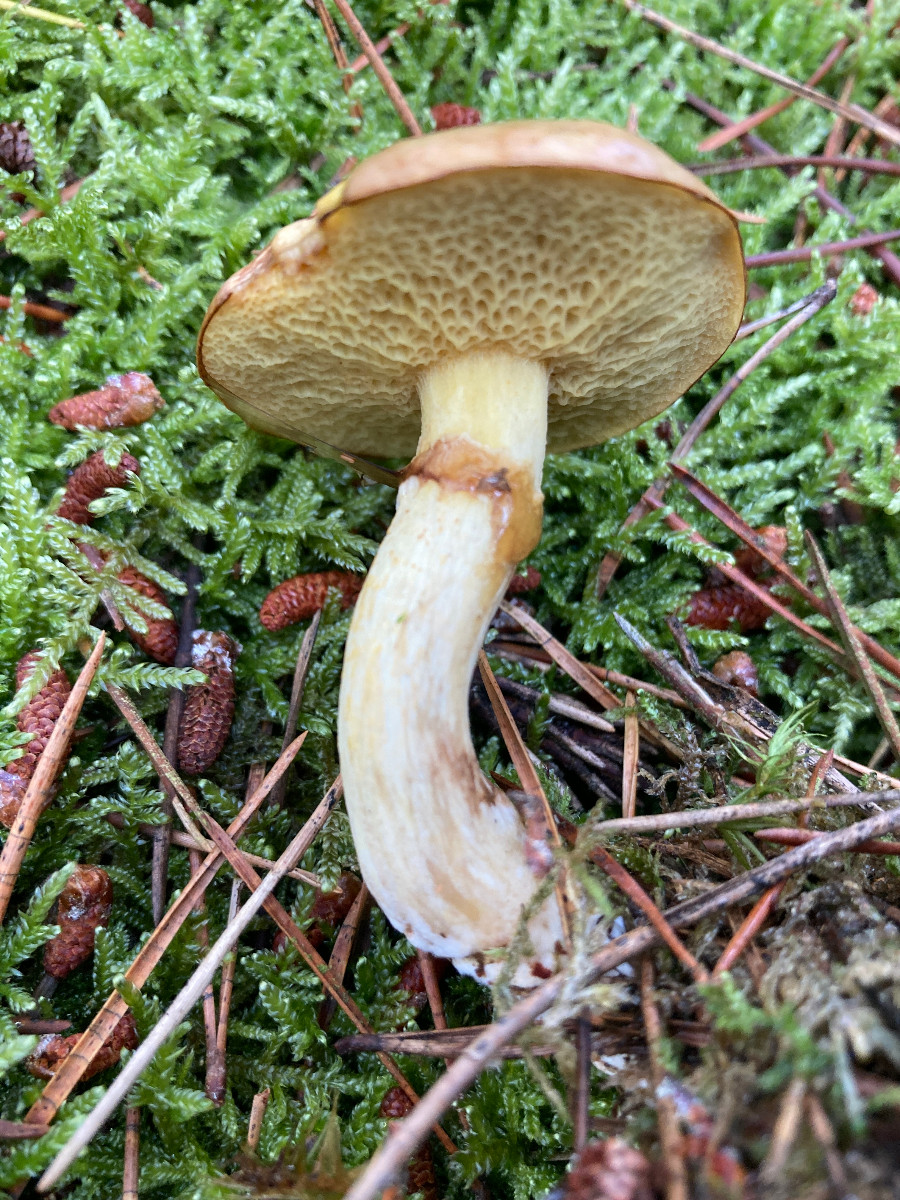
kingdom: Fungi
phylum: Basidiomycota
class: Agaricomycetes
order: Boletales
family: Suillaceae
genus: Suillus
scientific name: Suillus flavidus
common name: mose-slimrørhat
